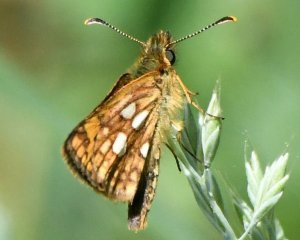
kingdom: Animalia
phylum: Arthropoda
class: Insecta
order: Lepidoptera
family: Hesperiidae
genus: Carterocephalus
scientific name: Carterocephalus mandan
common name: Arctic Skipperling
